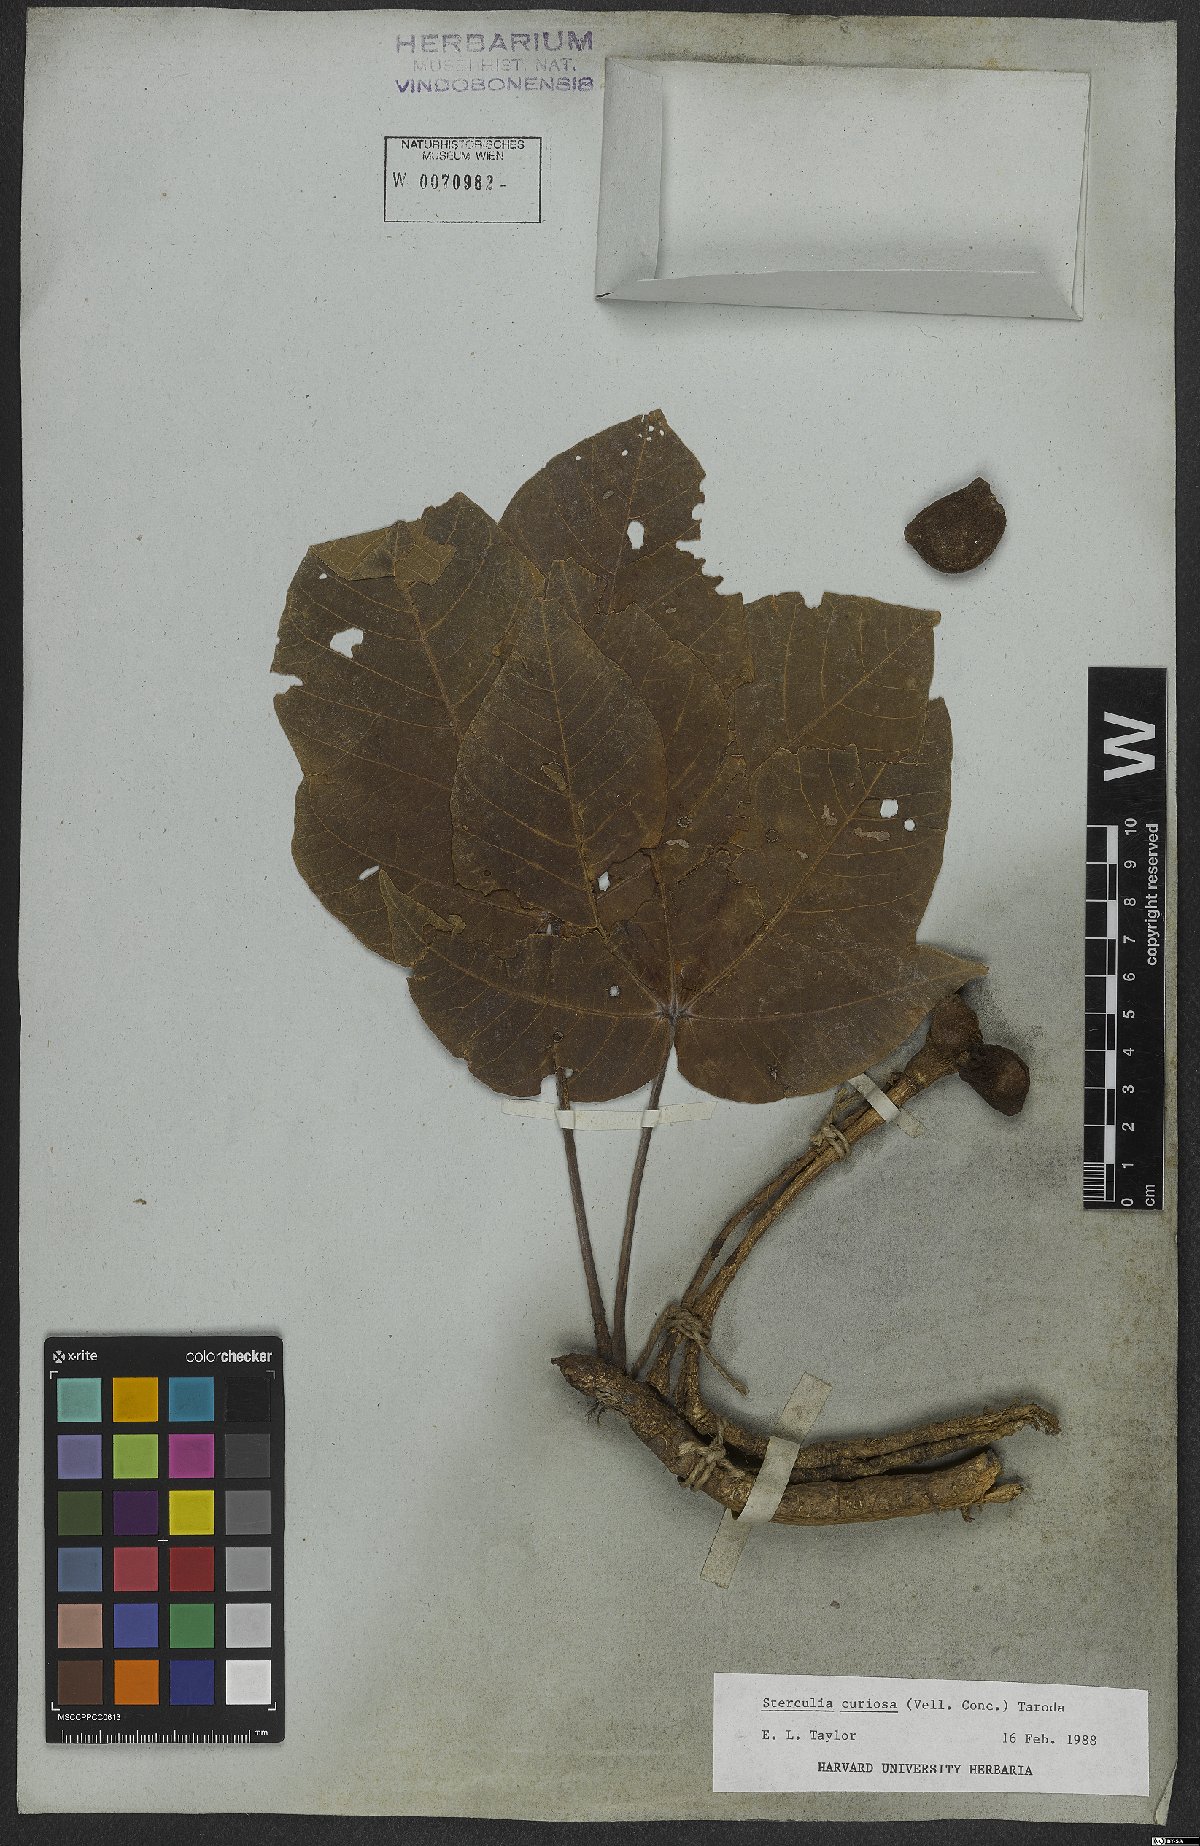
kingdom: Plantae
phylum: Tracheophyta
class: Magnoliopsida
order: Malvales
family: Malvaceae
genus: Sterculia
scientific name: Sterculia curiosa
